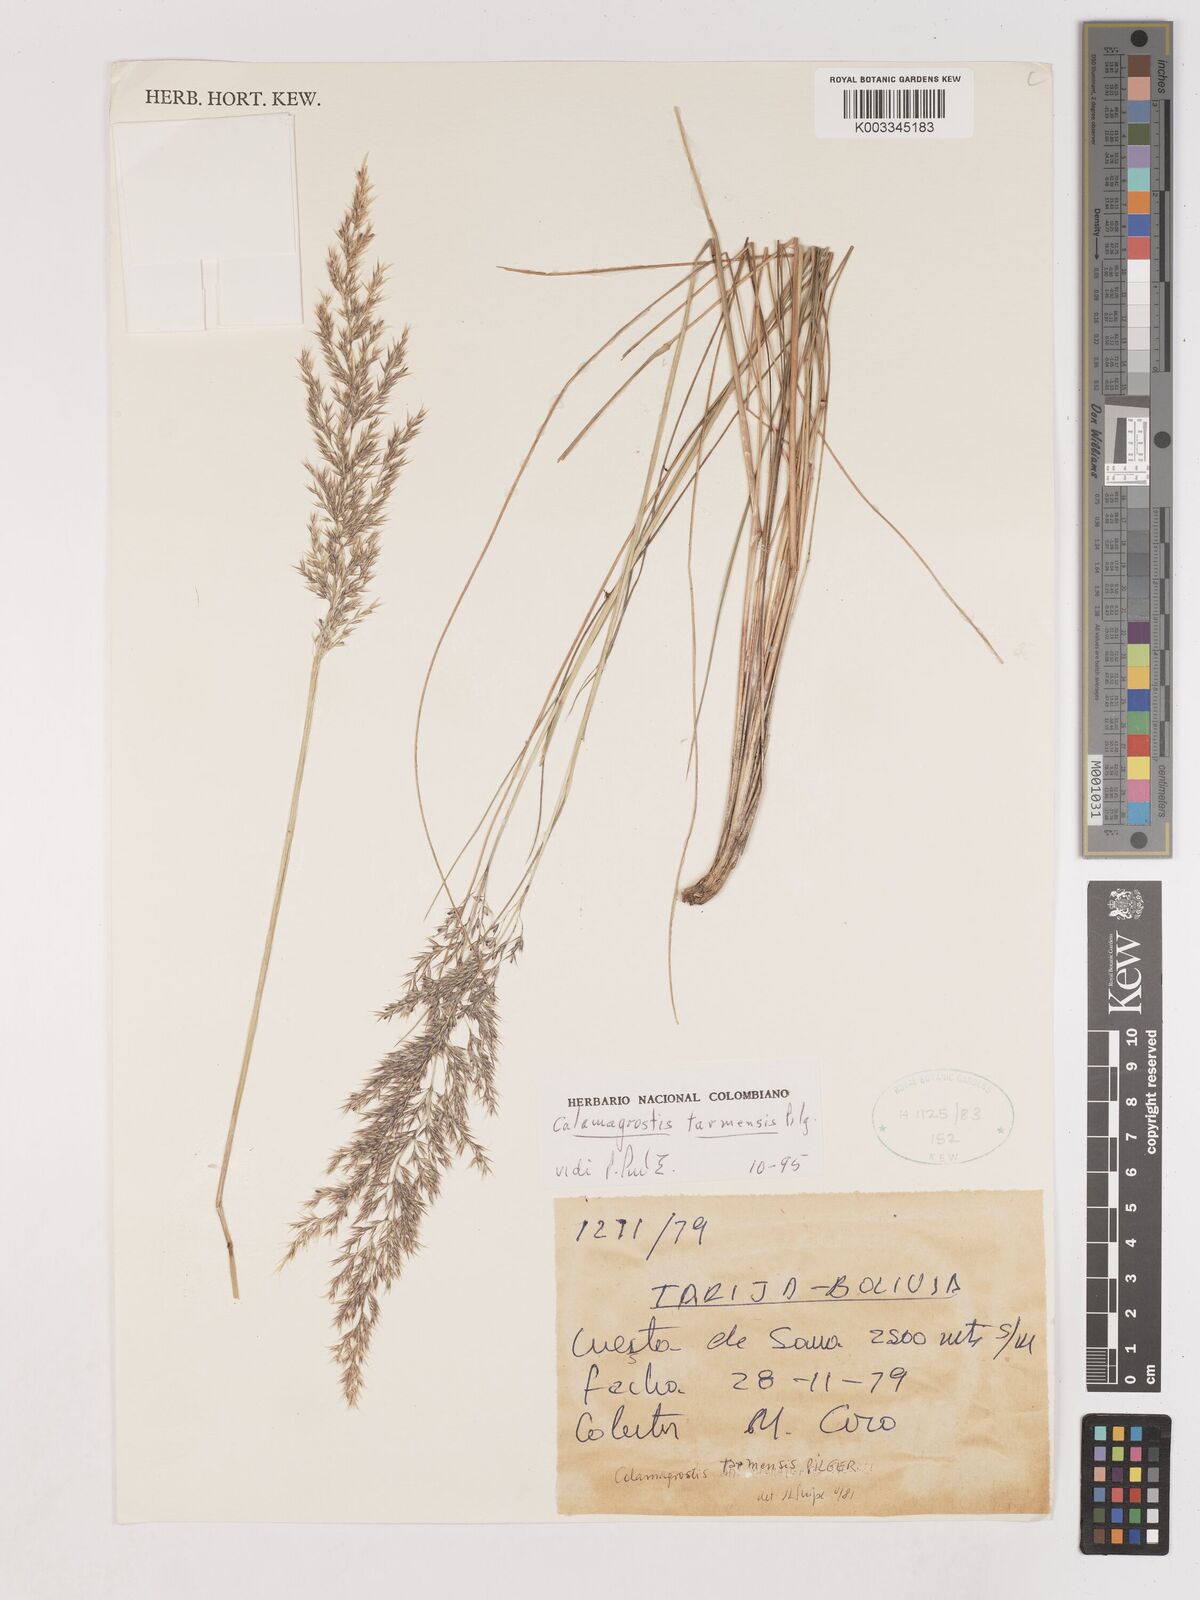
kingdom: Plantae
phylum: Tracheophyta
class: Liliopsida
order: Poales
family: Poaceae
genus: Calamagrostis
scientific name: Calamagrostis
